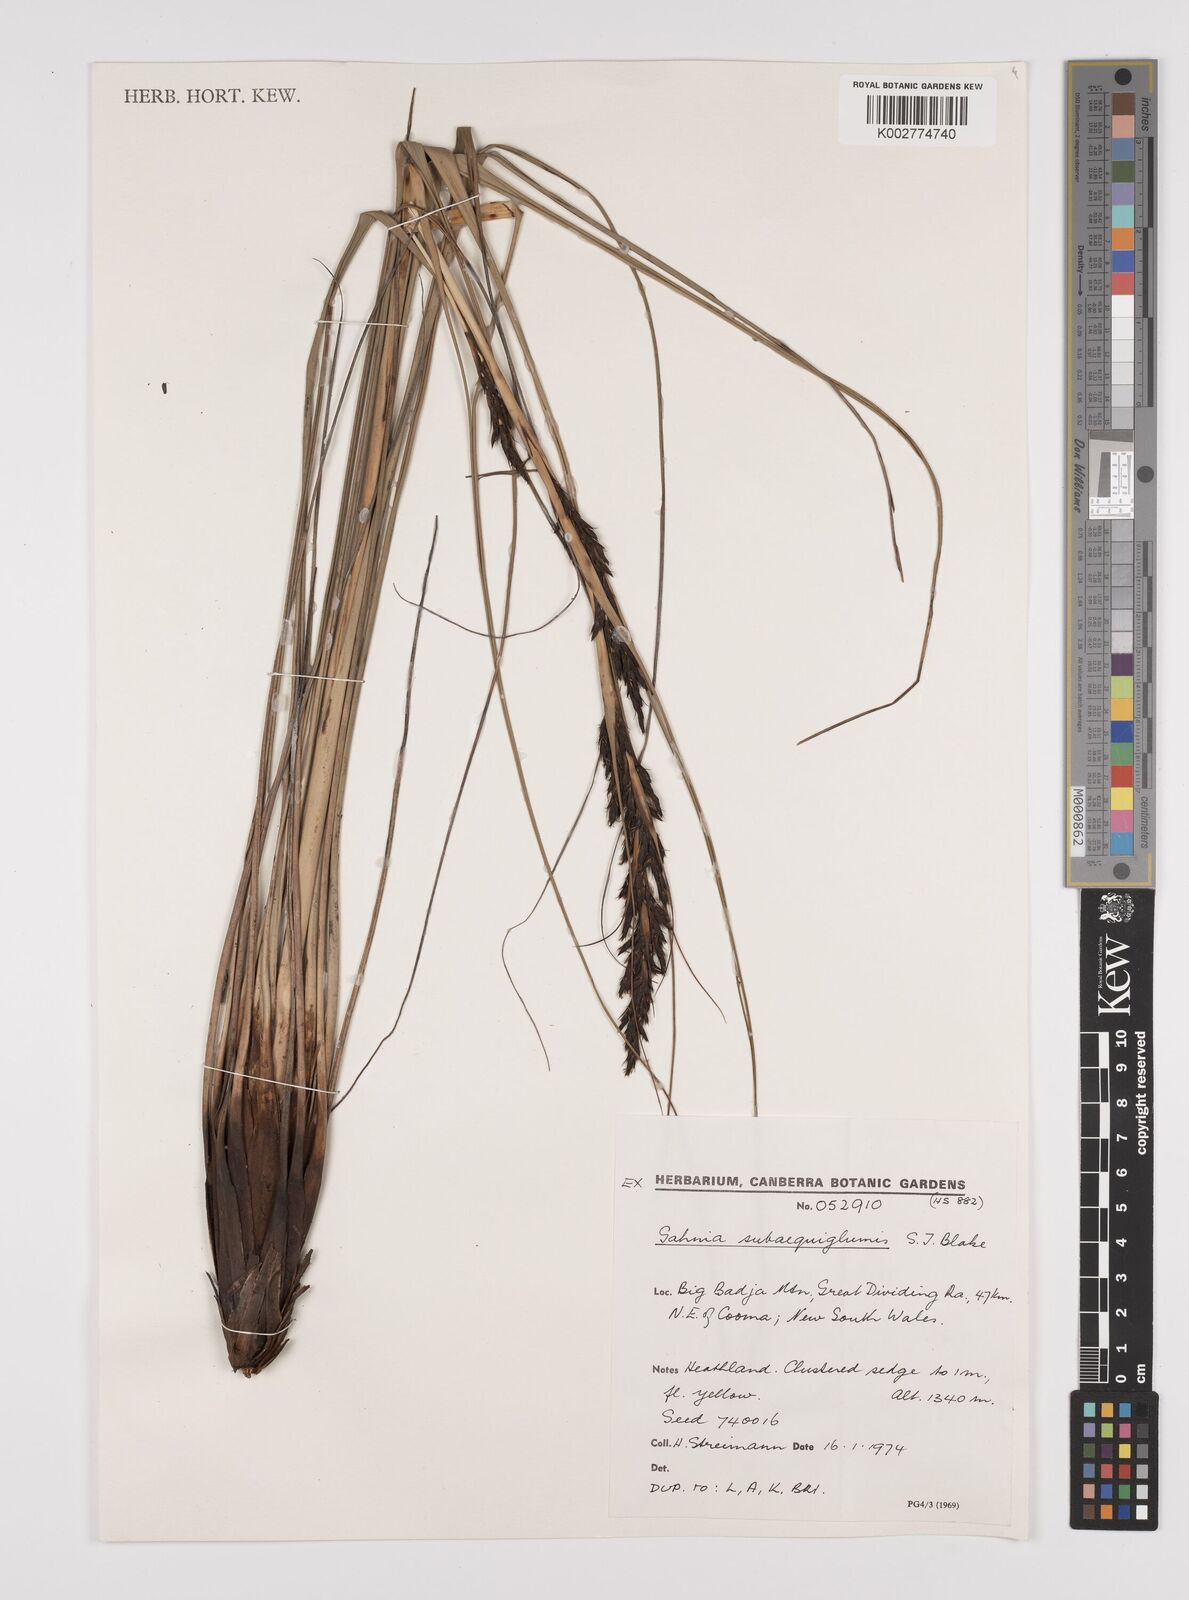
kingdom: Plantae
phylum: Tracheophyta
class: Liliopsida
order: Poales
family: Cyperaceae
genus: Gahnia
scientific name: Gahnia subaequiglumis
